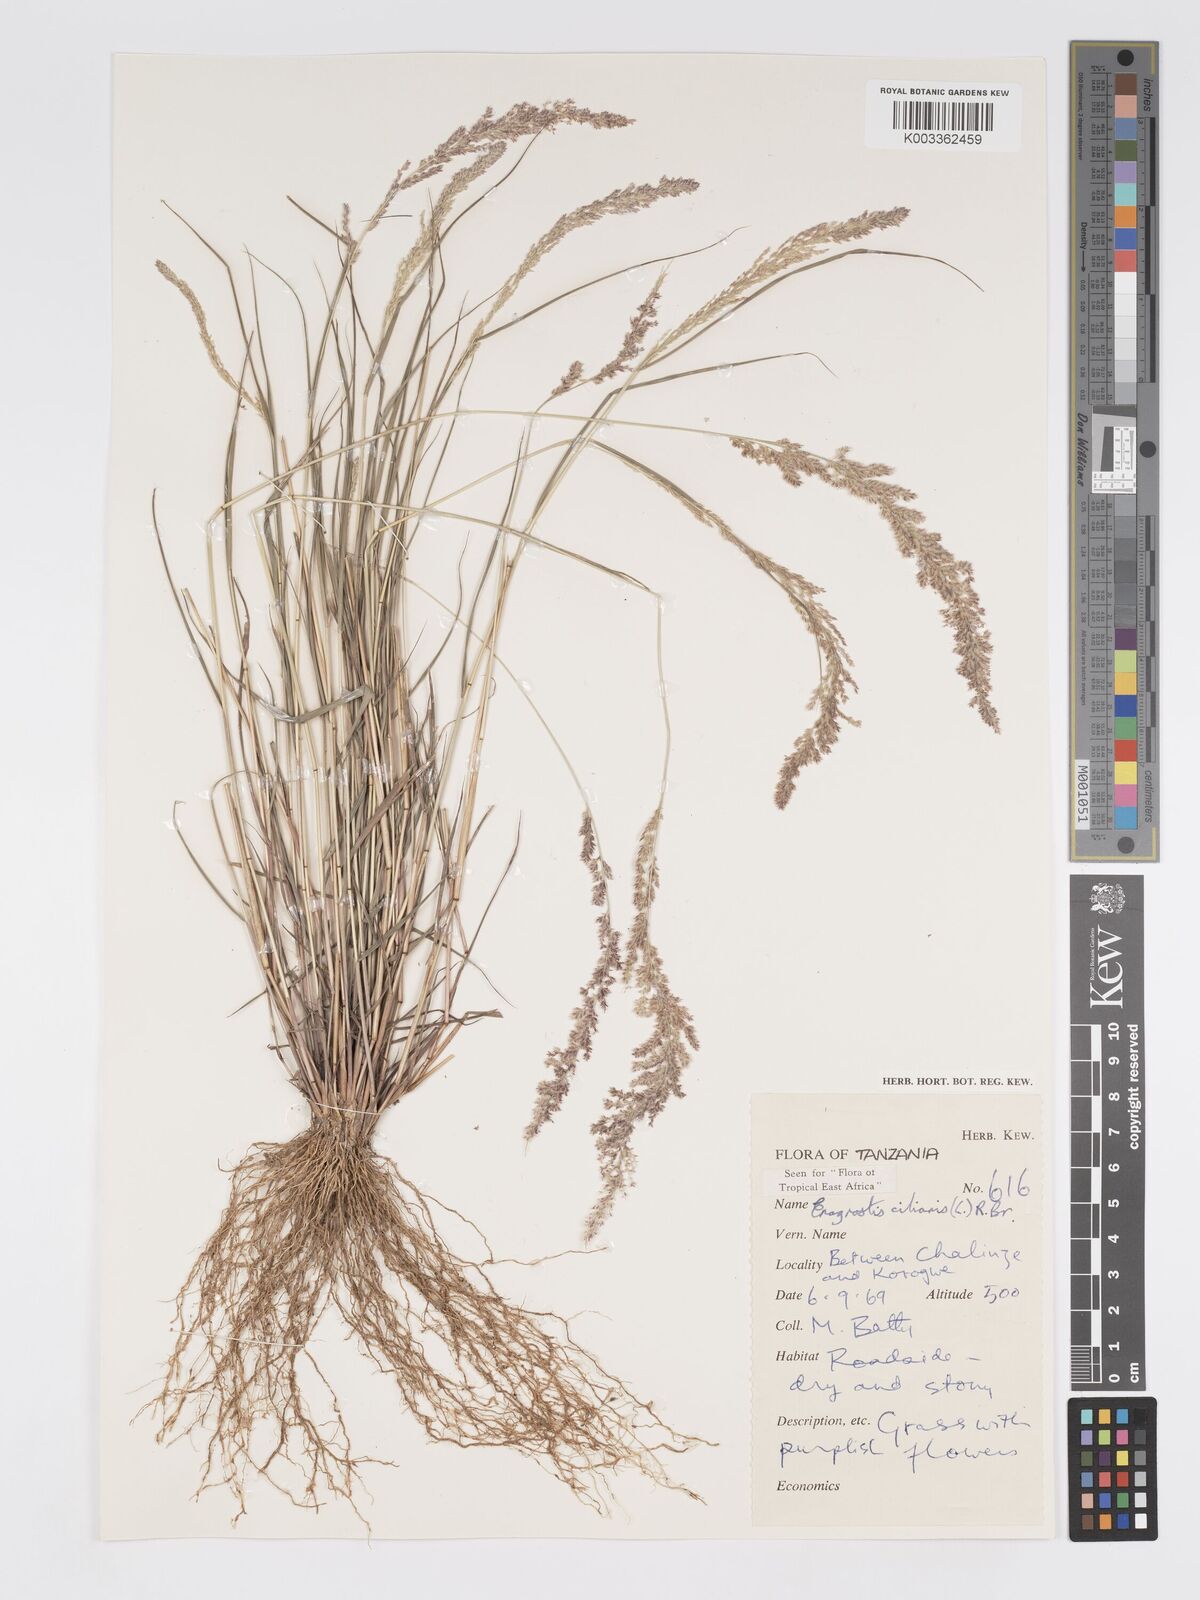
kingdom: Plantae
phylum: Tracheophyta
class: Liliopsida
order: Poales
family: Poaceae
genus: Eragrostis
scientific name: Eragrostis ciliaris
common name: Gophertail lovegrass
